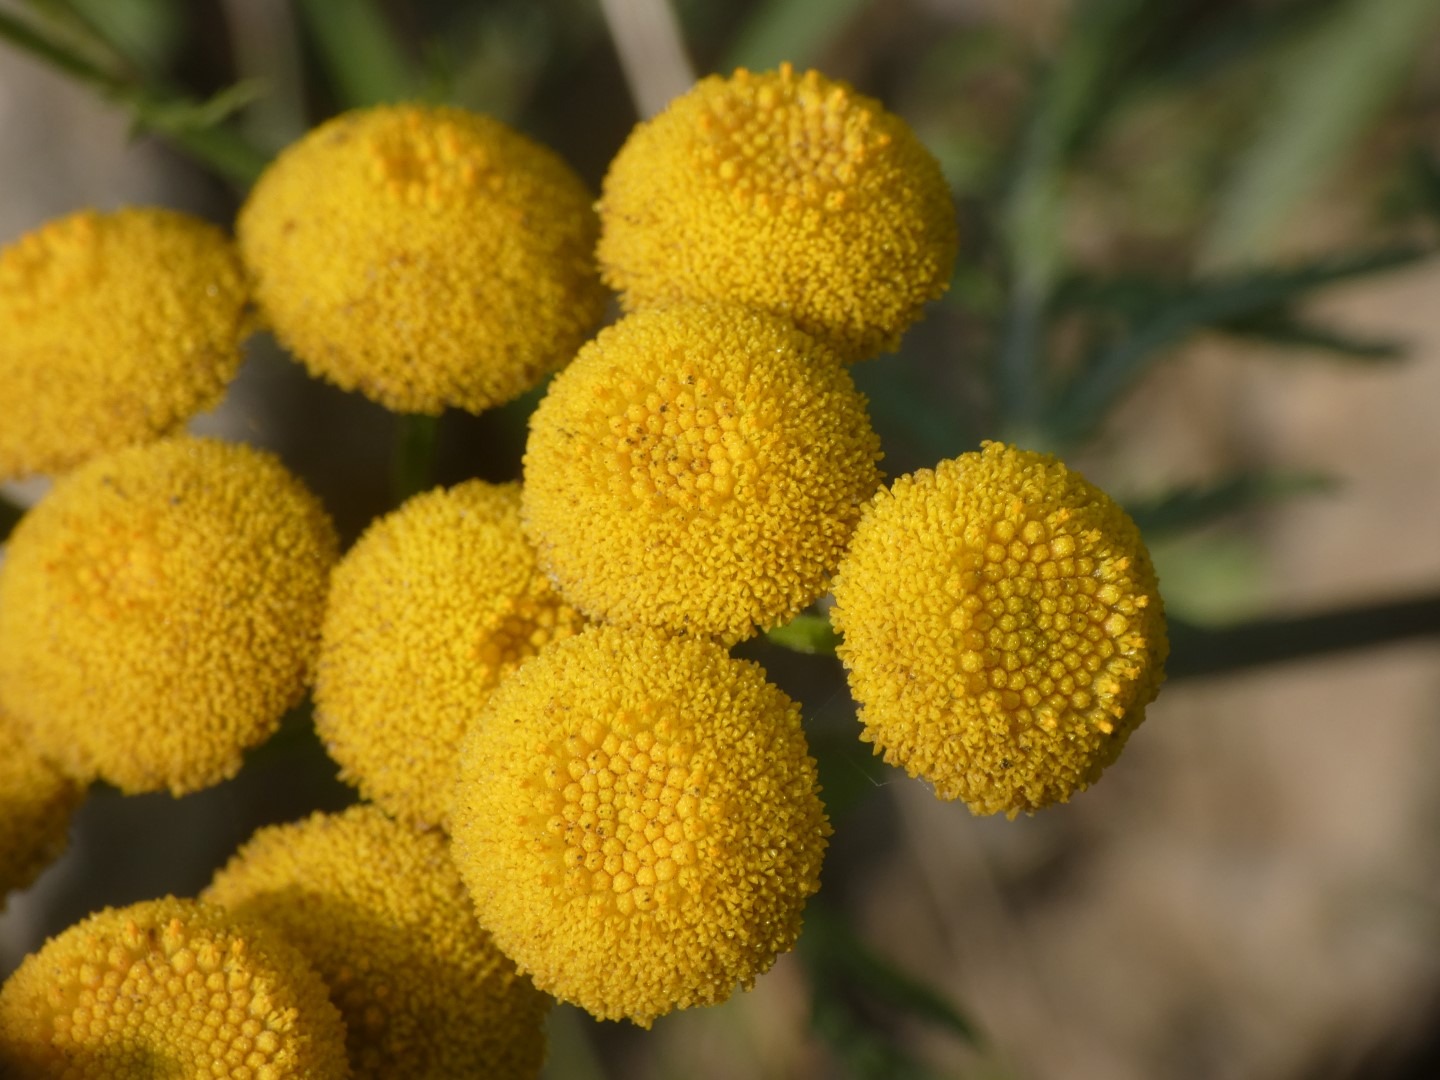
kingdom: Plantae
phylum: Tracheophyta
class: Magnoliopsida
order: Asterales
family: Asteraceae
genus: Tanacetum
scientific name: Tanacetum vulgare
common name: Rejnfan
